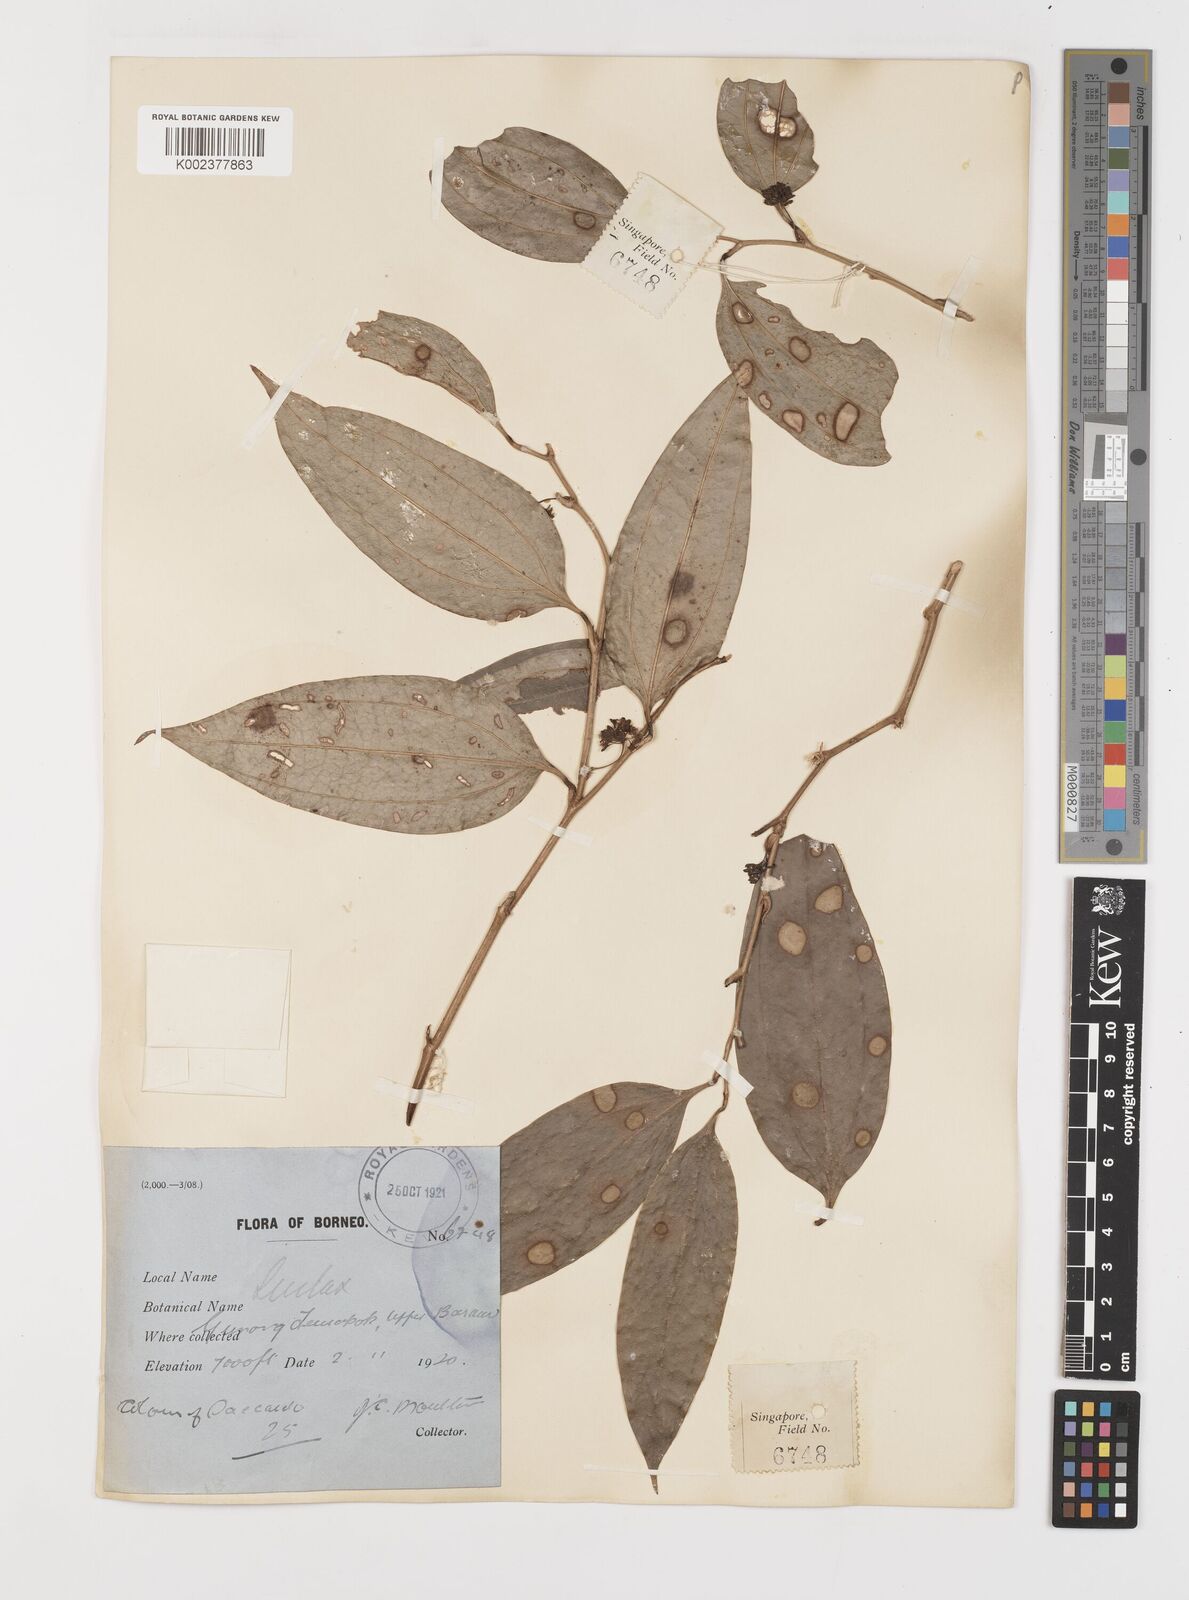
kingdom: Plantae
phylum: Tracheophyta
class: Liliopsida
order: Liliales
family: Smilacaceae
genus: Smilax
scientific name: Smilax
